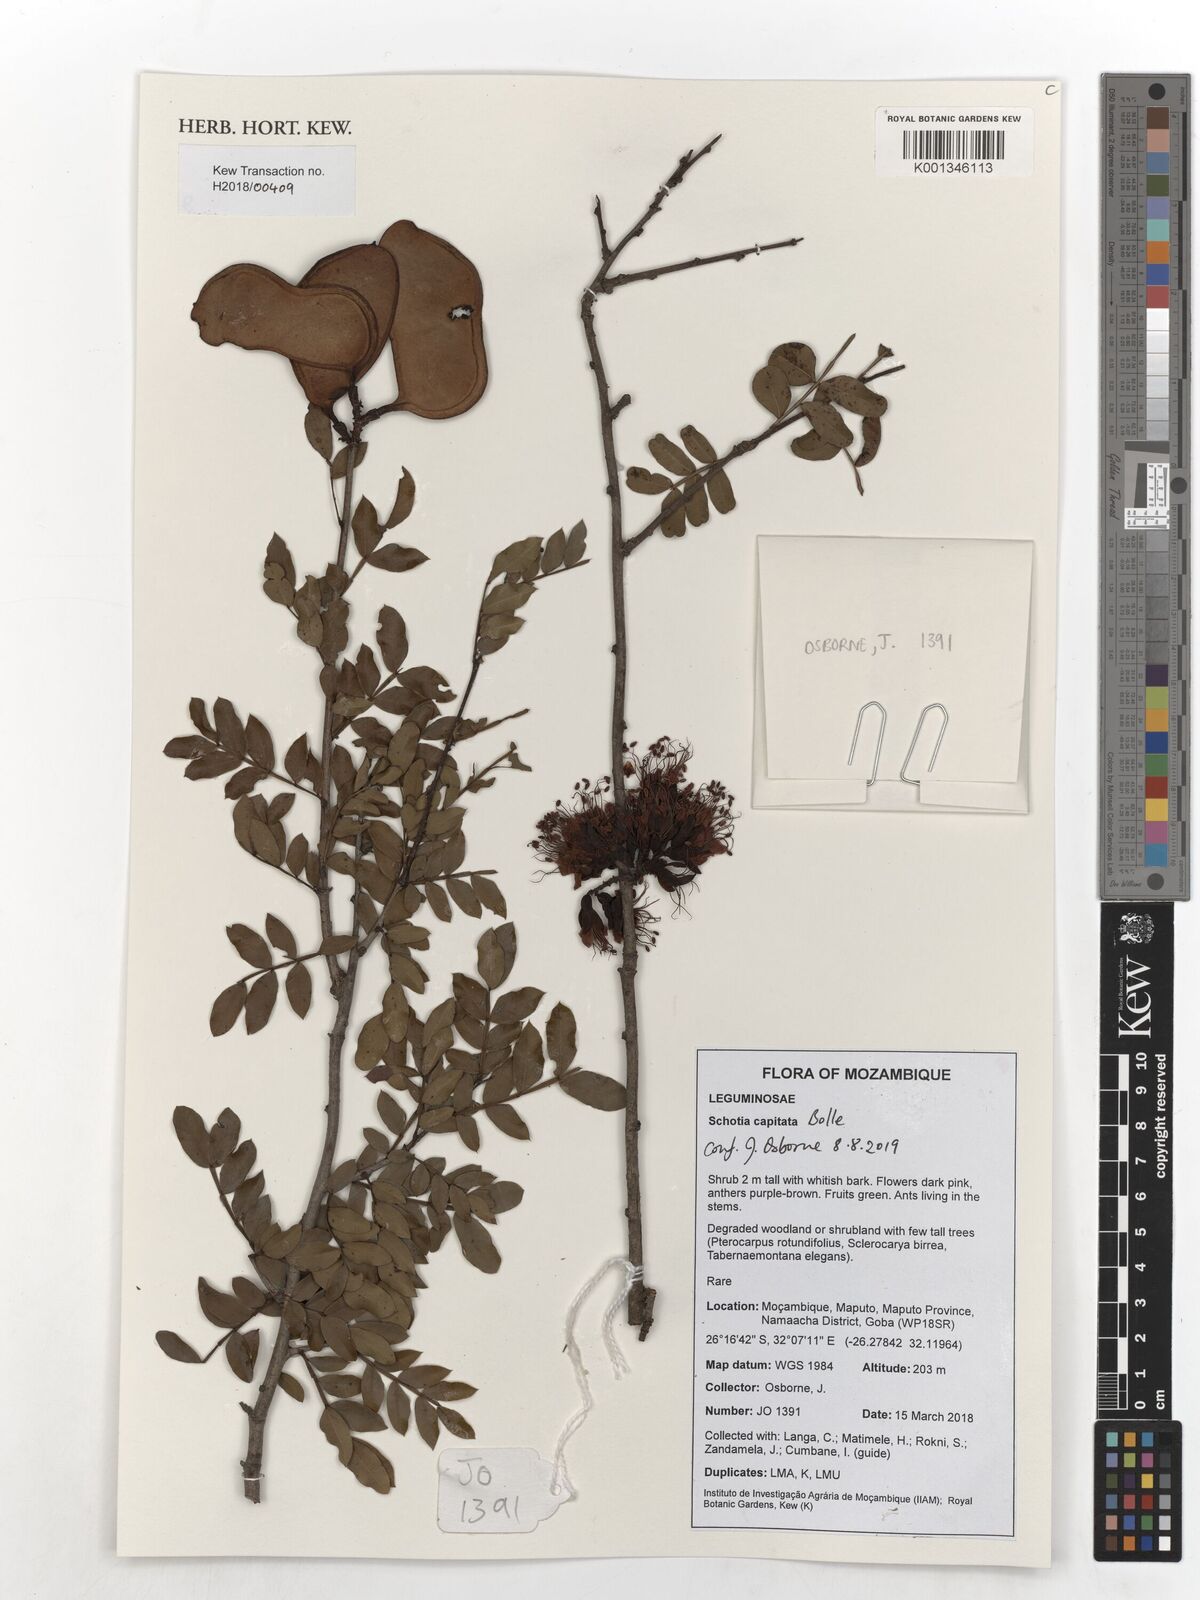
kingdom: Plantae
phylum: Tracheophyta
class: Magnoliopsida
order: Fabales
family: Fabaceae
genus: Schotia
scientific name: Schotia capitata
